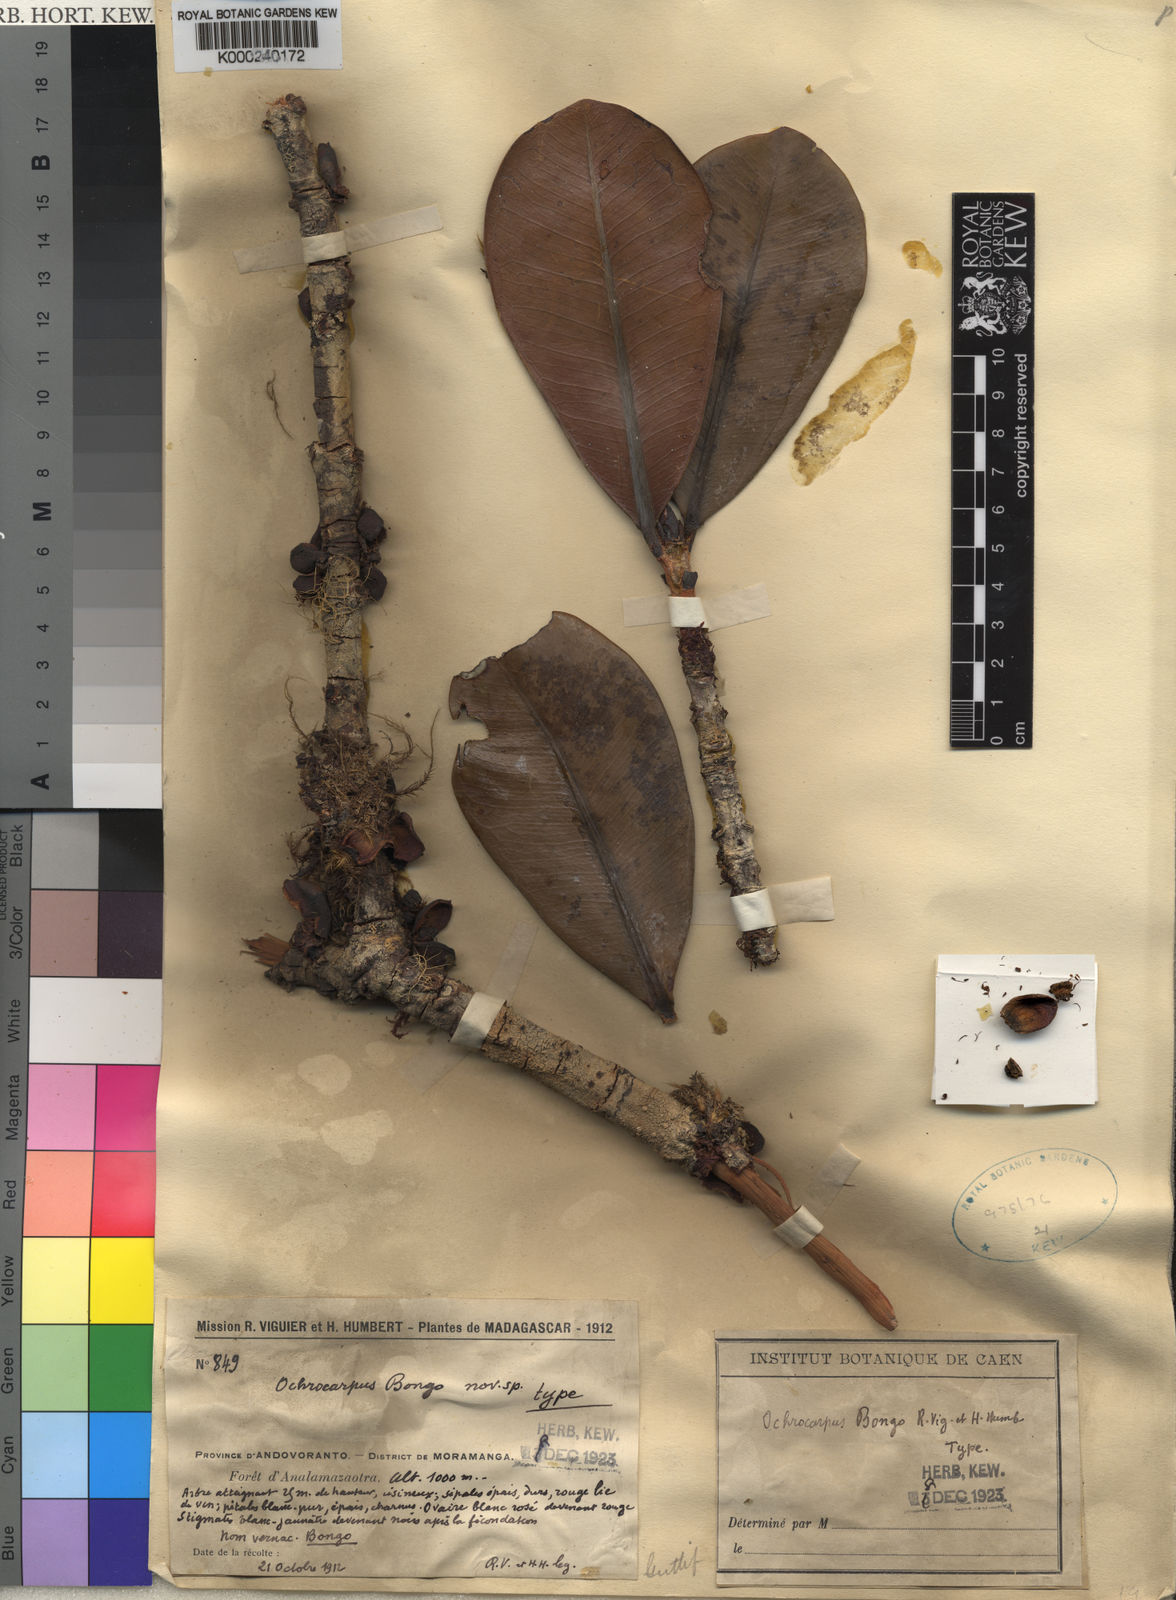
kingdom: Plantae
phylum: Tracheophyta
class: Magnoliopsida
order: Malpighiales
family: Calophyllaceae
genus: Mammea
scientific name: Mammea bongo
